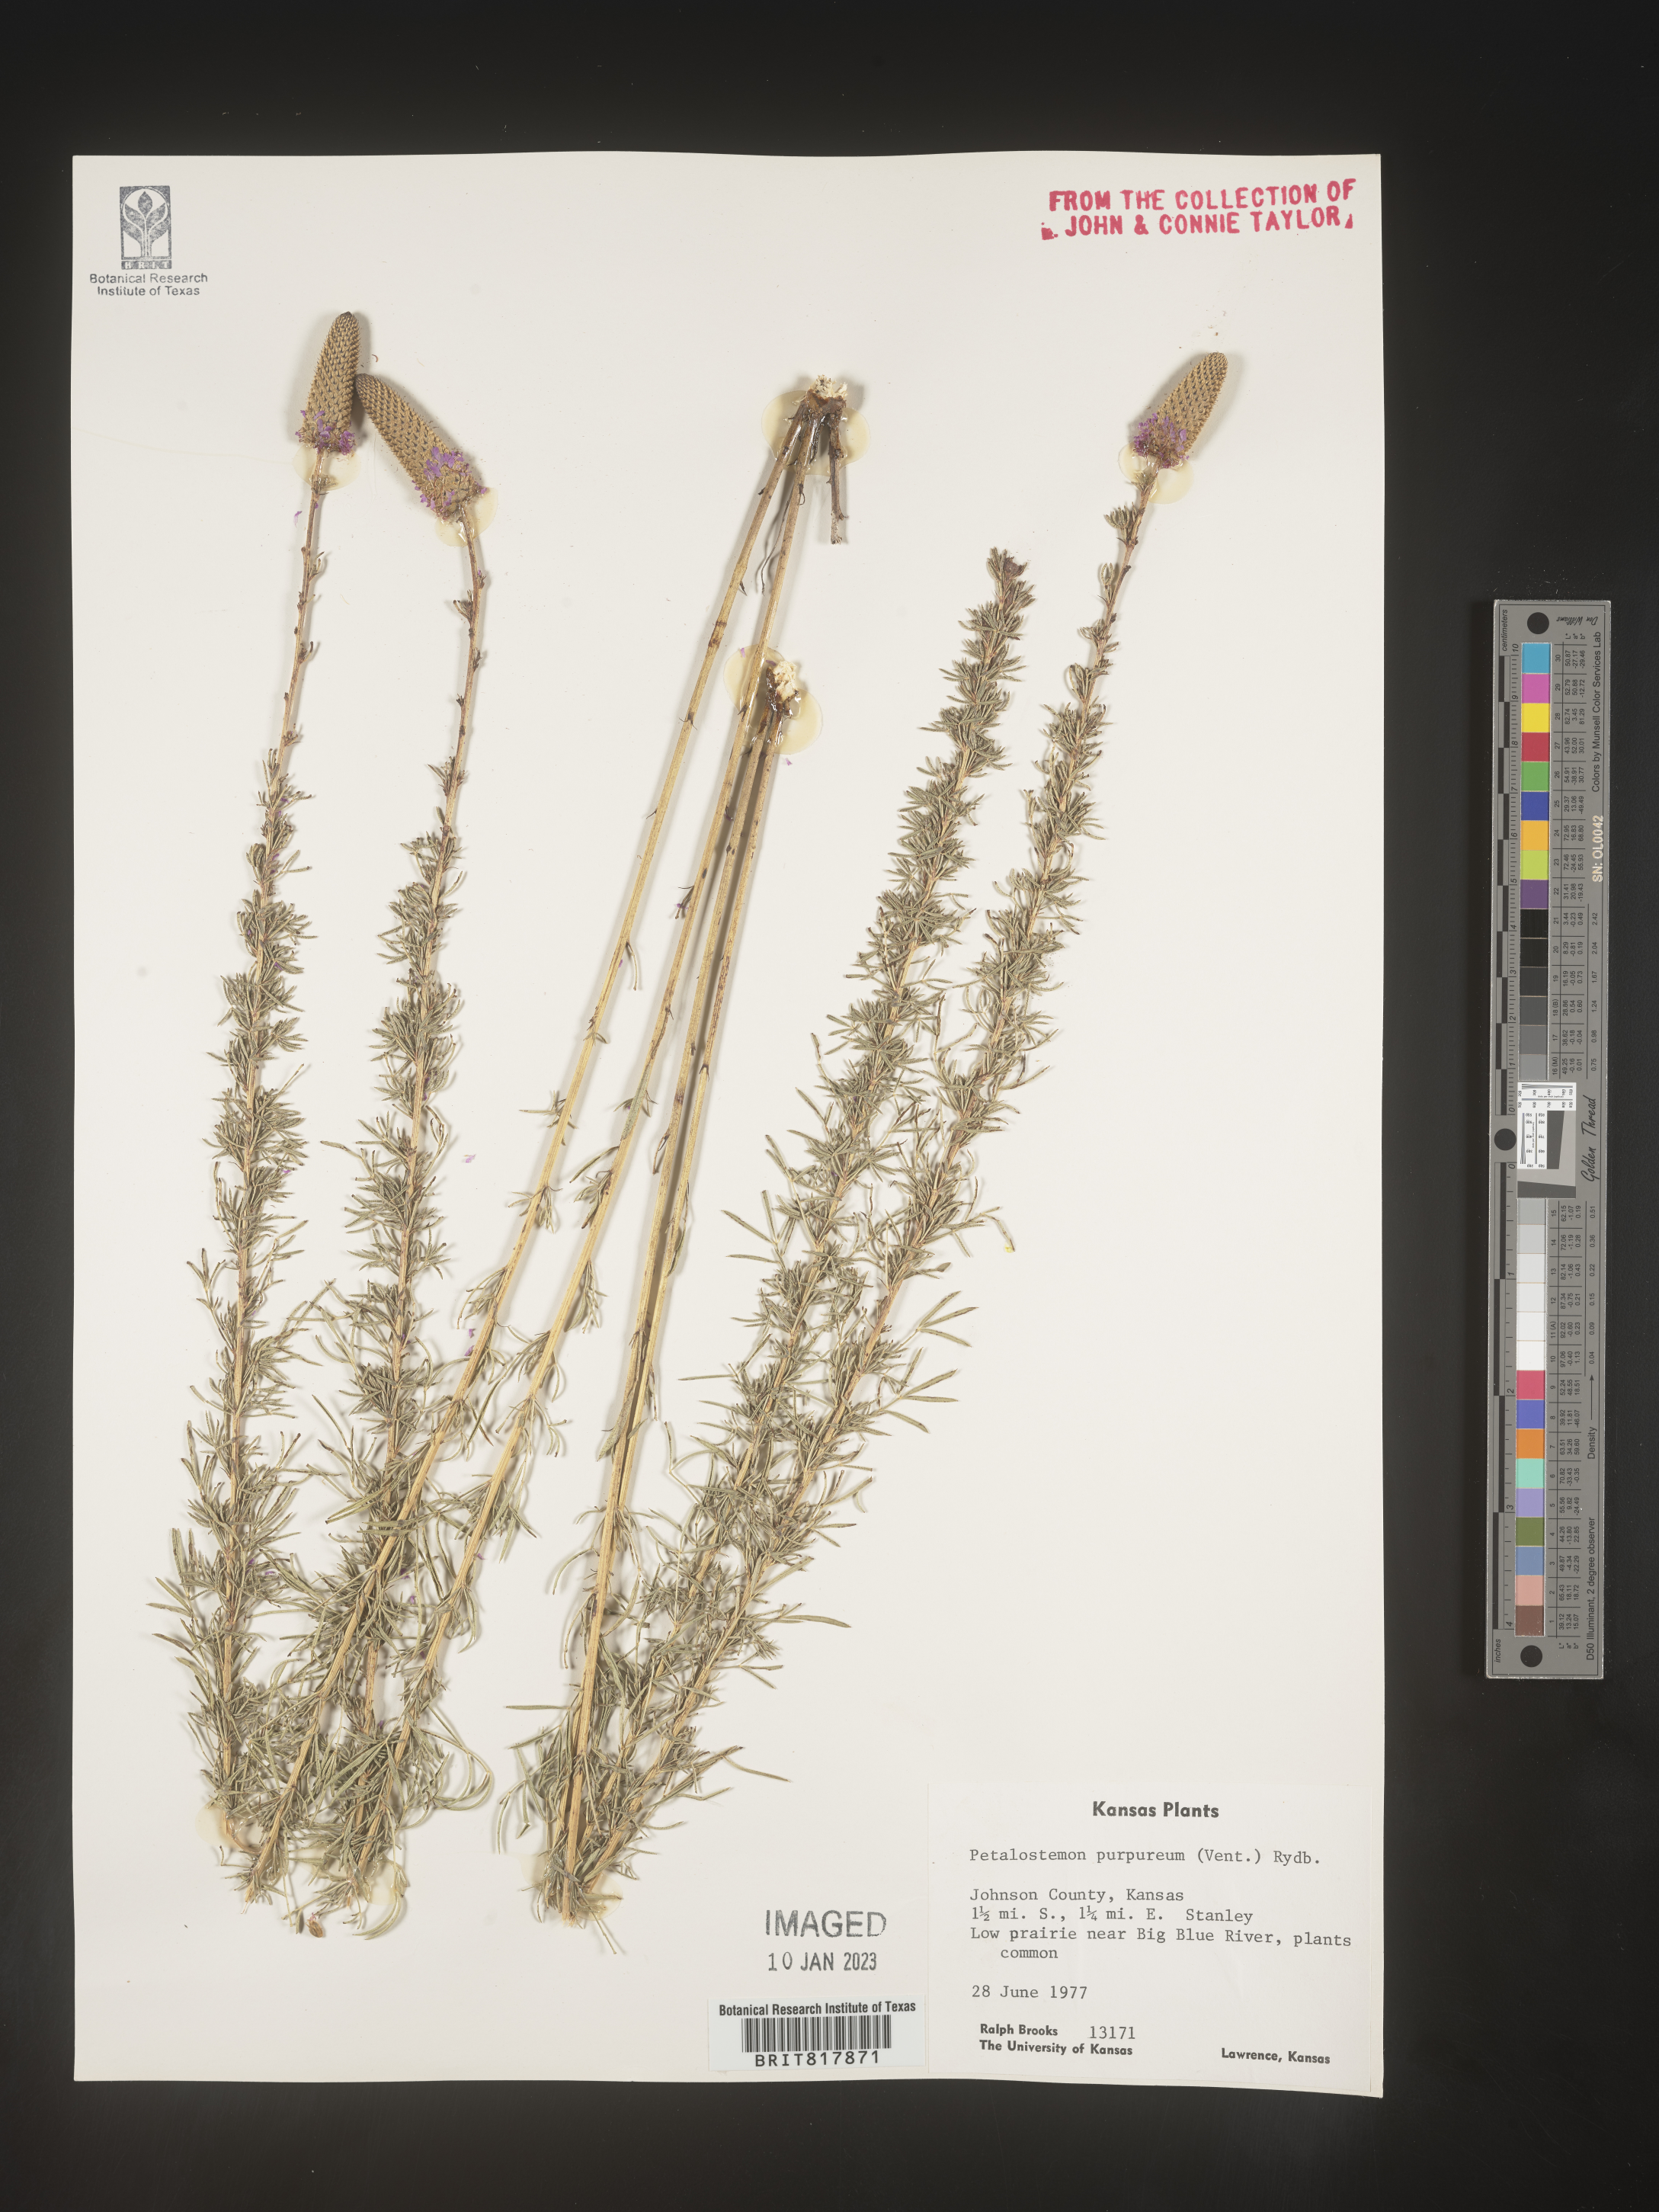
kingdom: Plantae
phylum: Tracheophyta
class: Magnoliopsida
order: Fabales
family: Fabaceae
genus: Dalea
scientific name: Dalea purpurea
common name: Purple prairie-clover
